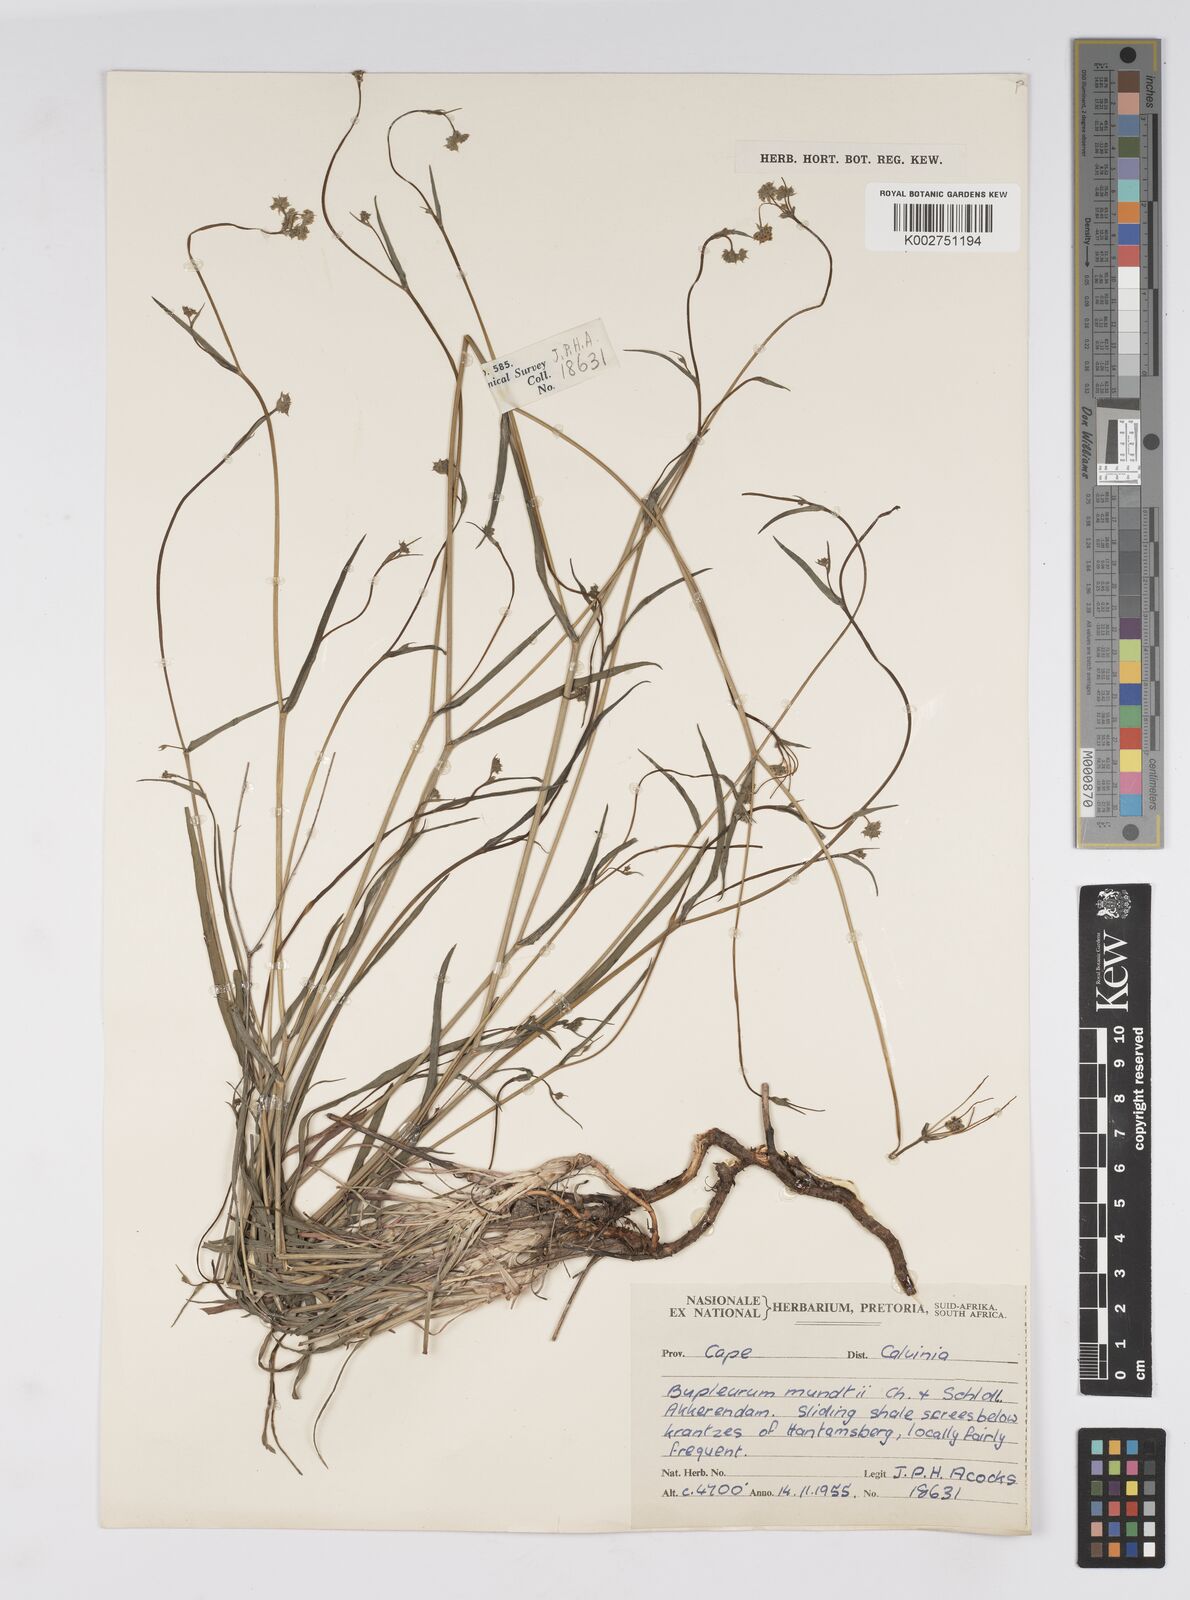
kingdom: Plantae
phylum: Tracheophyta
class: Magnoliopsida
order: Apiales
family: Apiaceae
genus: Bupleurum
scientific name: Bupleurum mundii
